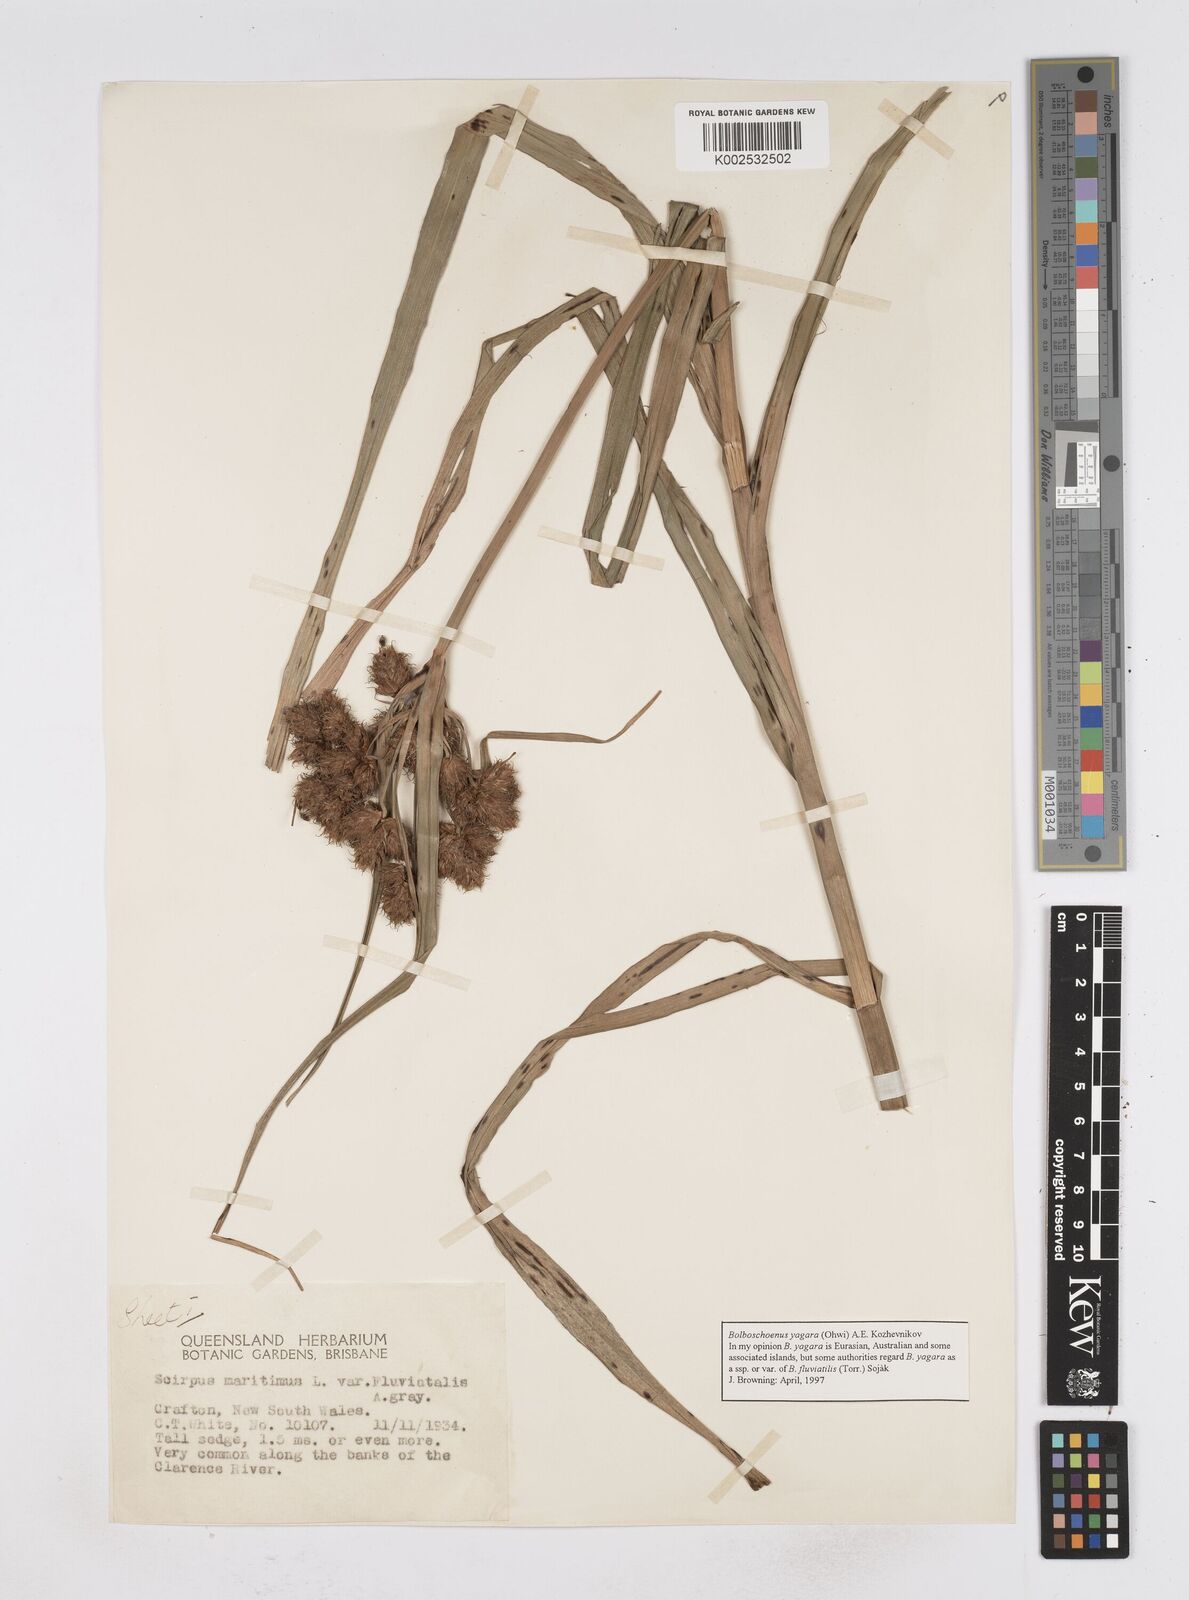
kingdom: Plantae
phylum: Tracheophyta
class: Liliopsida
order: Poales
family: Cyperaceae
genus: Bolboschoenus
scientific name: Bolboschoenus maritimus
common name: Sea club-rush
